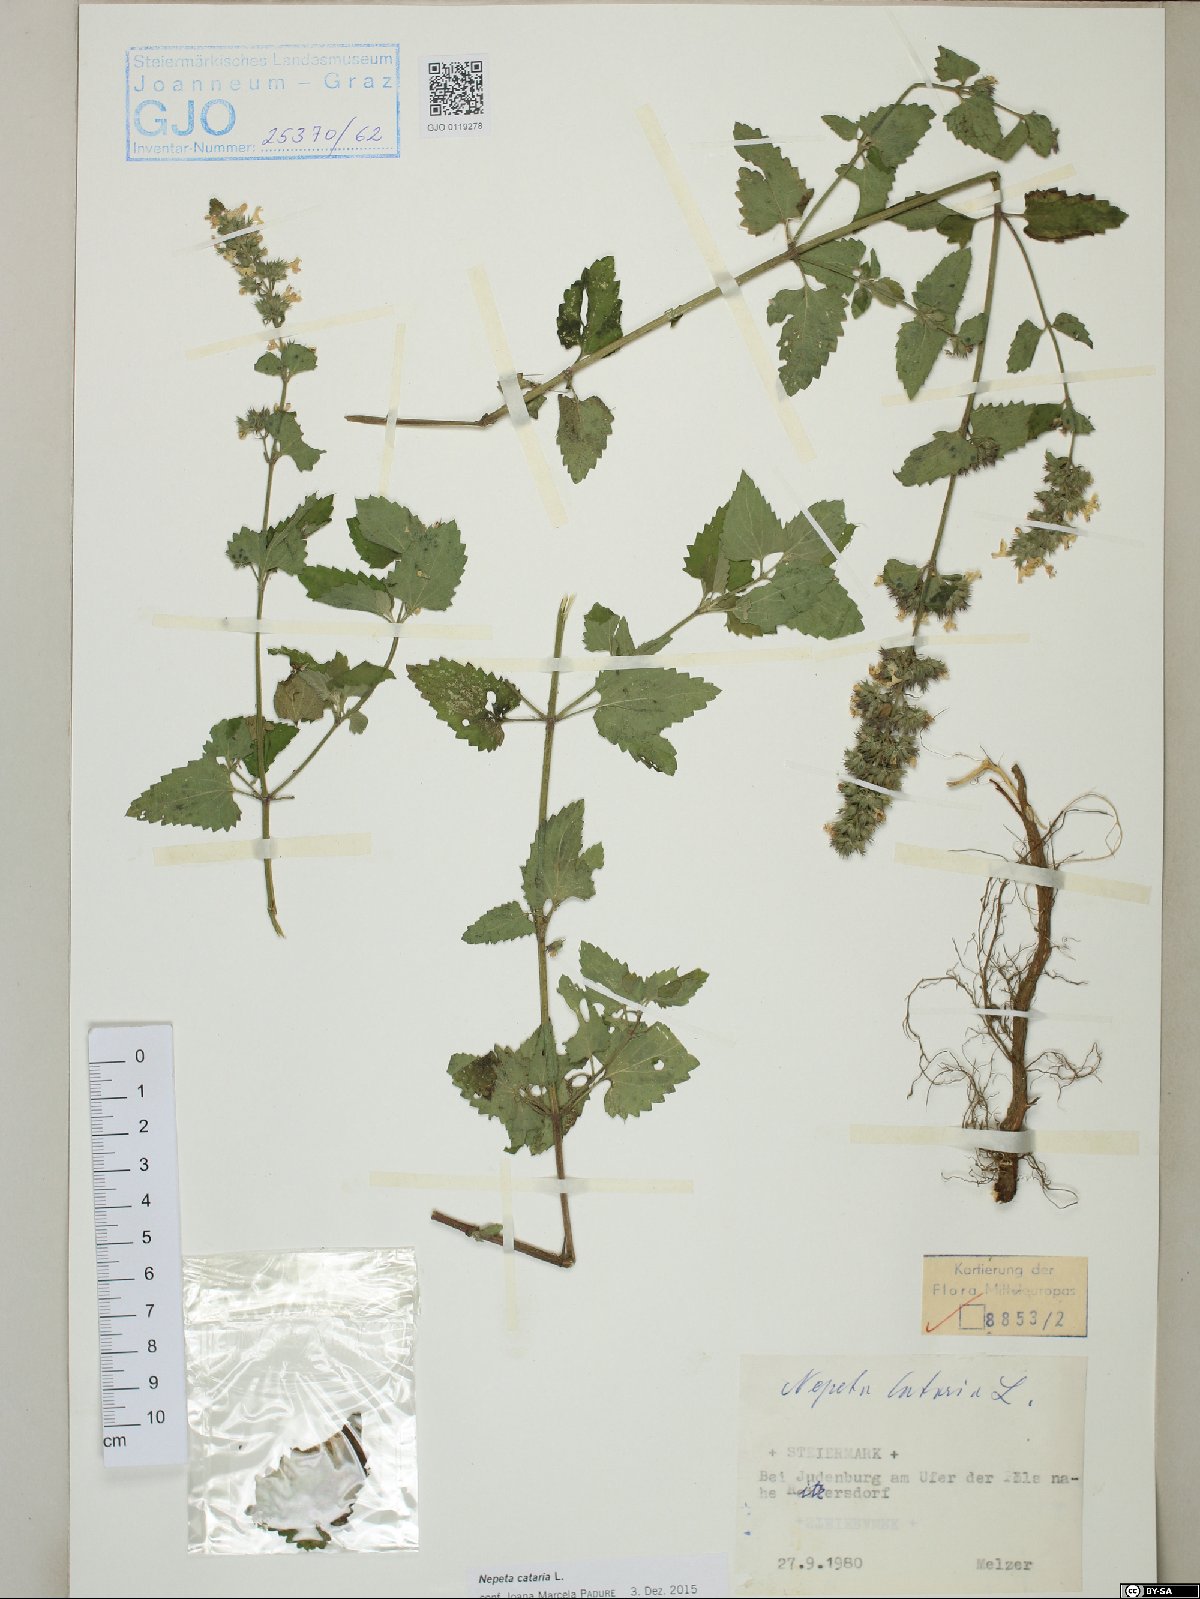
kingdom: Plantae
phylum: Tracheophyta
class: Magnoliopsida
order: Lamiales
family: Lamiaceae
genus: Nepeta
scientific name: Nepeta cataria
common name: Catnip
